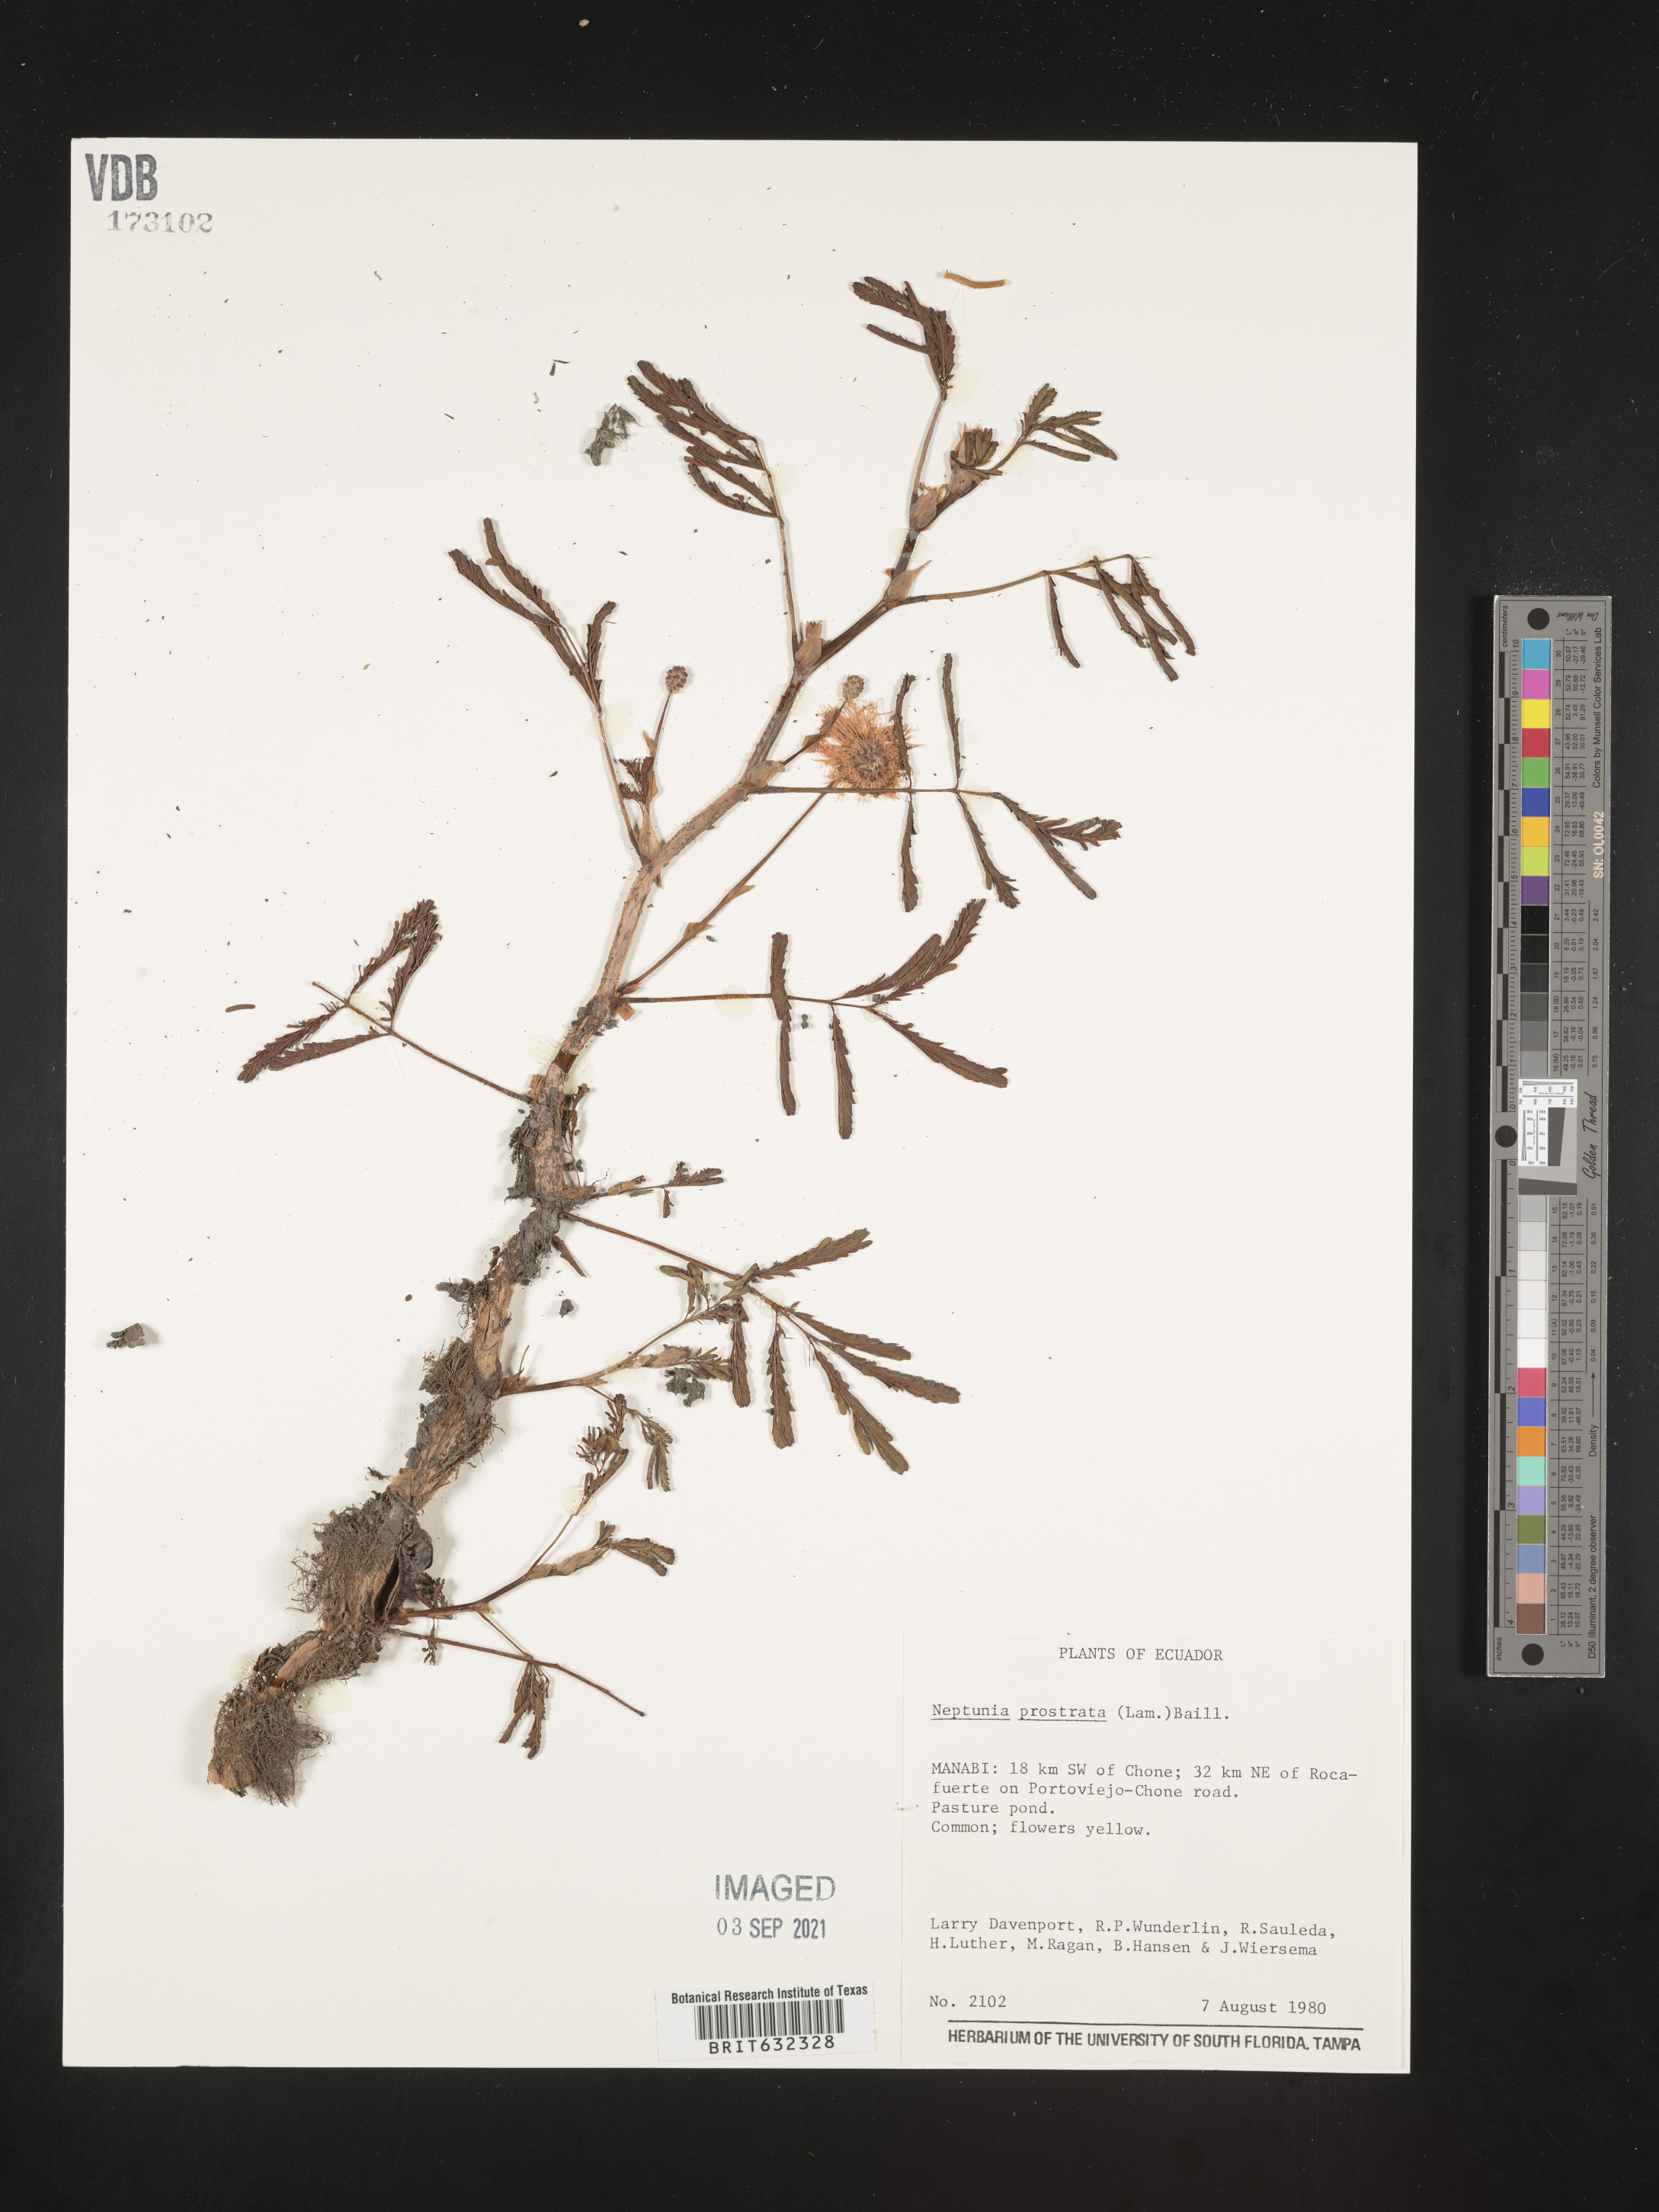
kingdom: Plantae
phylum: Tracheophyta
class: Magnoliopsida
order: Fabales
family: Fabaceae
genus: Neptunia
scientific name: Neptunia prostrata
